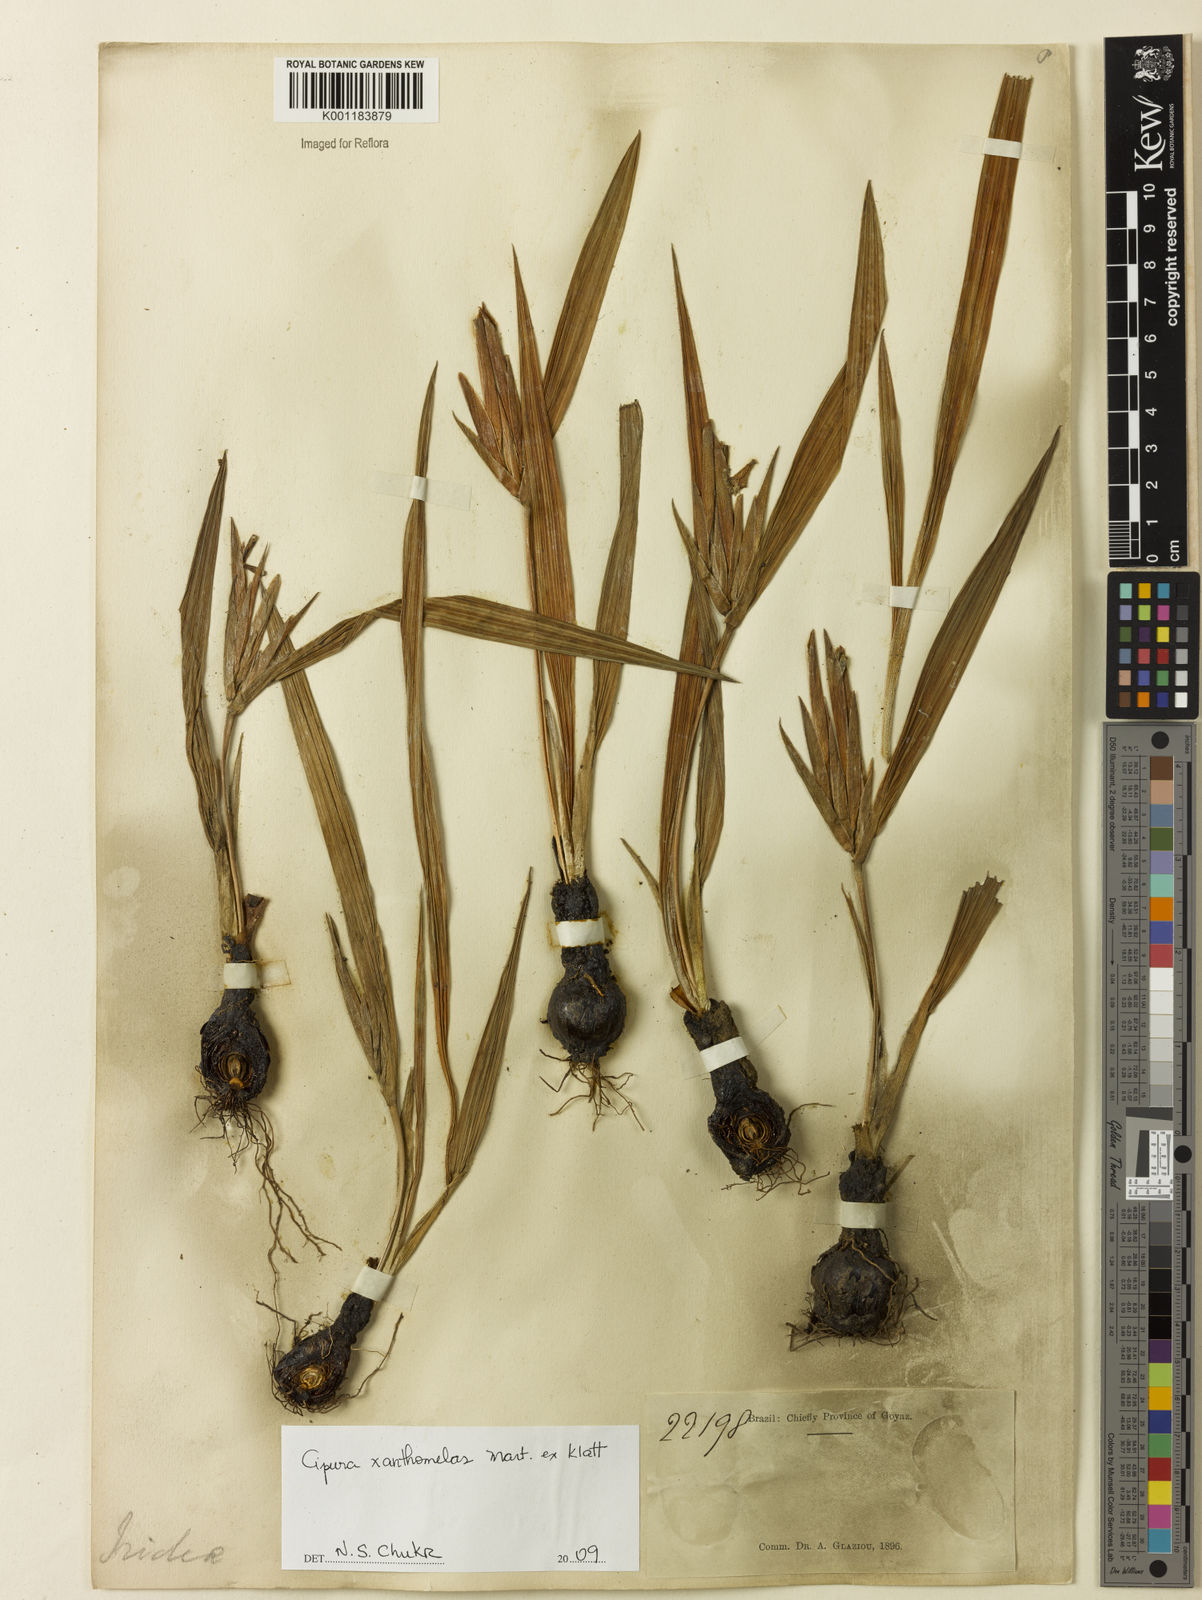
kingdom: Plantae
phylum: Tracheophyta
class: Liliopsida
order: Asparagales
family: Iridaceae
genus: Cipura
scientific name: Cipura xanthomelas
